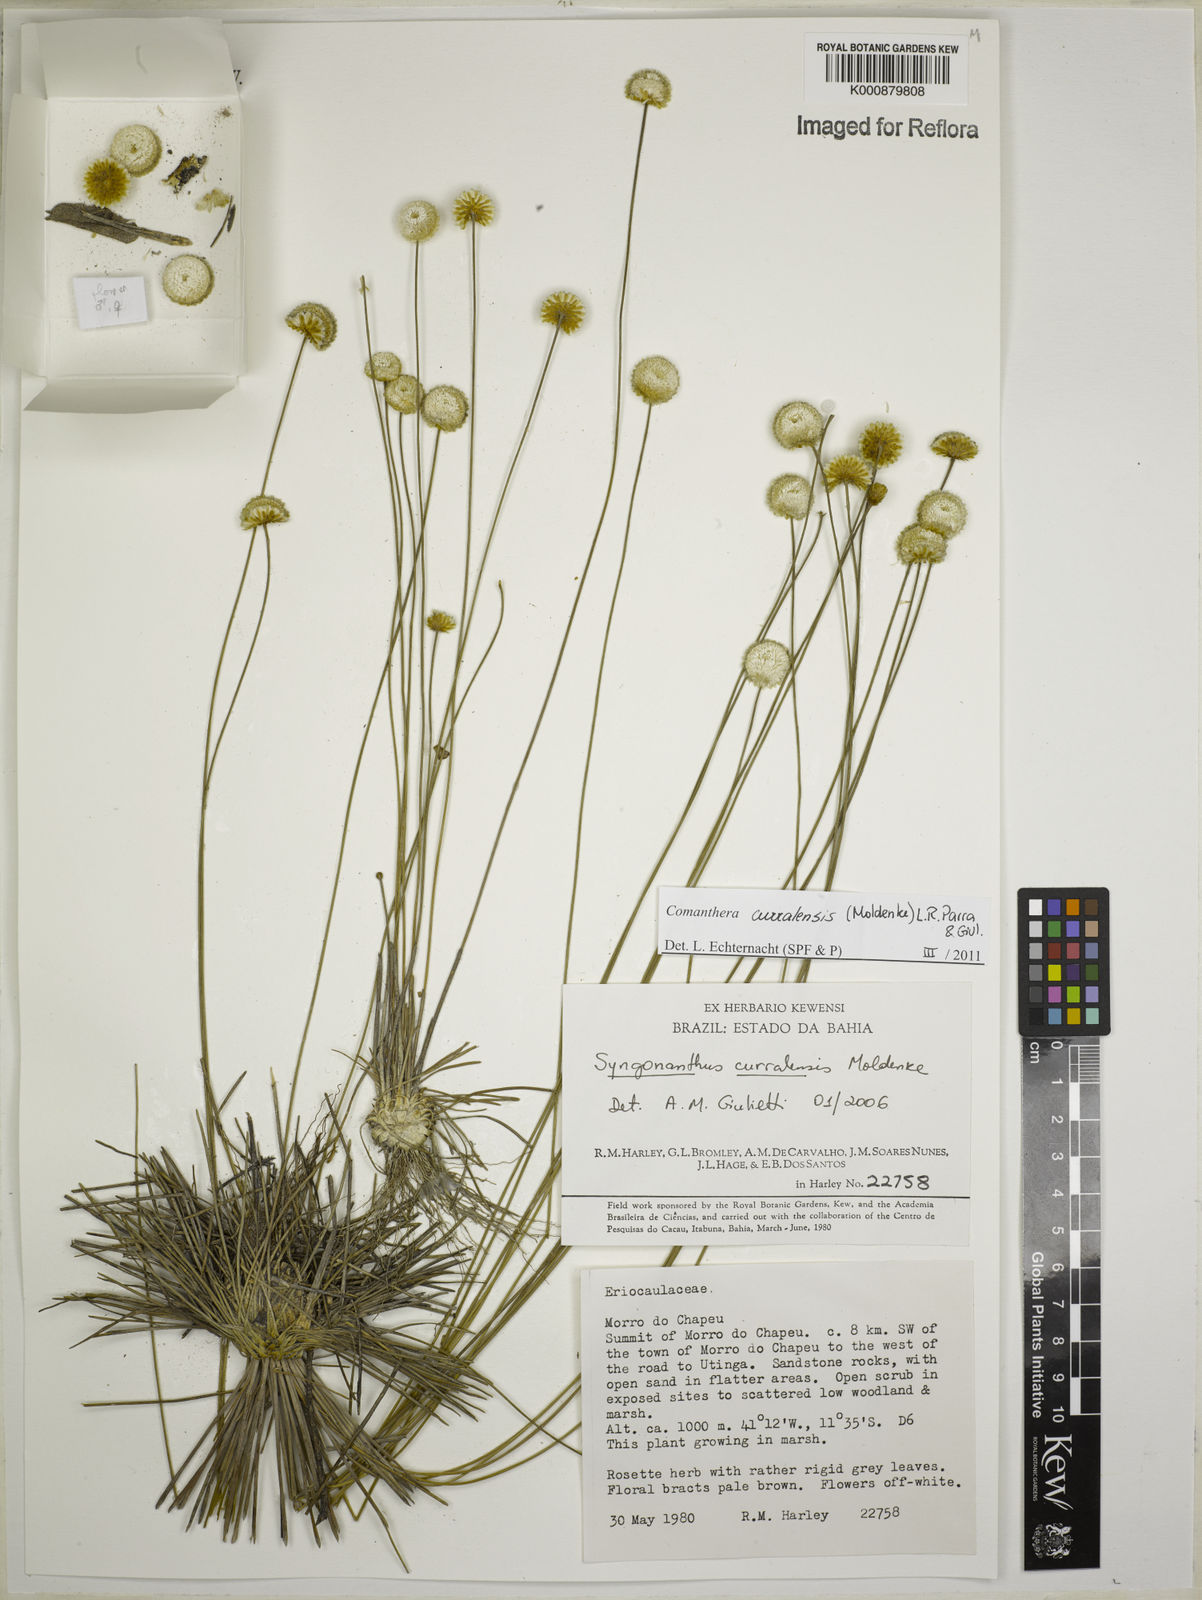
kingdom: Plantae
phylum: Tracheophyta
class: Liliopsida
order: Poales
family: Eriocaulaceae
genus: Comanthera
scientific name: Comanthera curralensis
